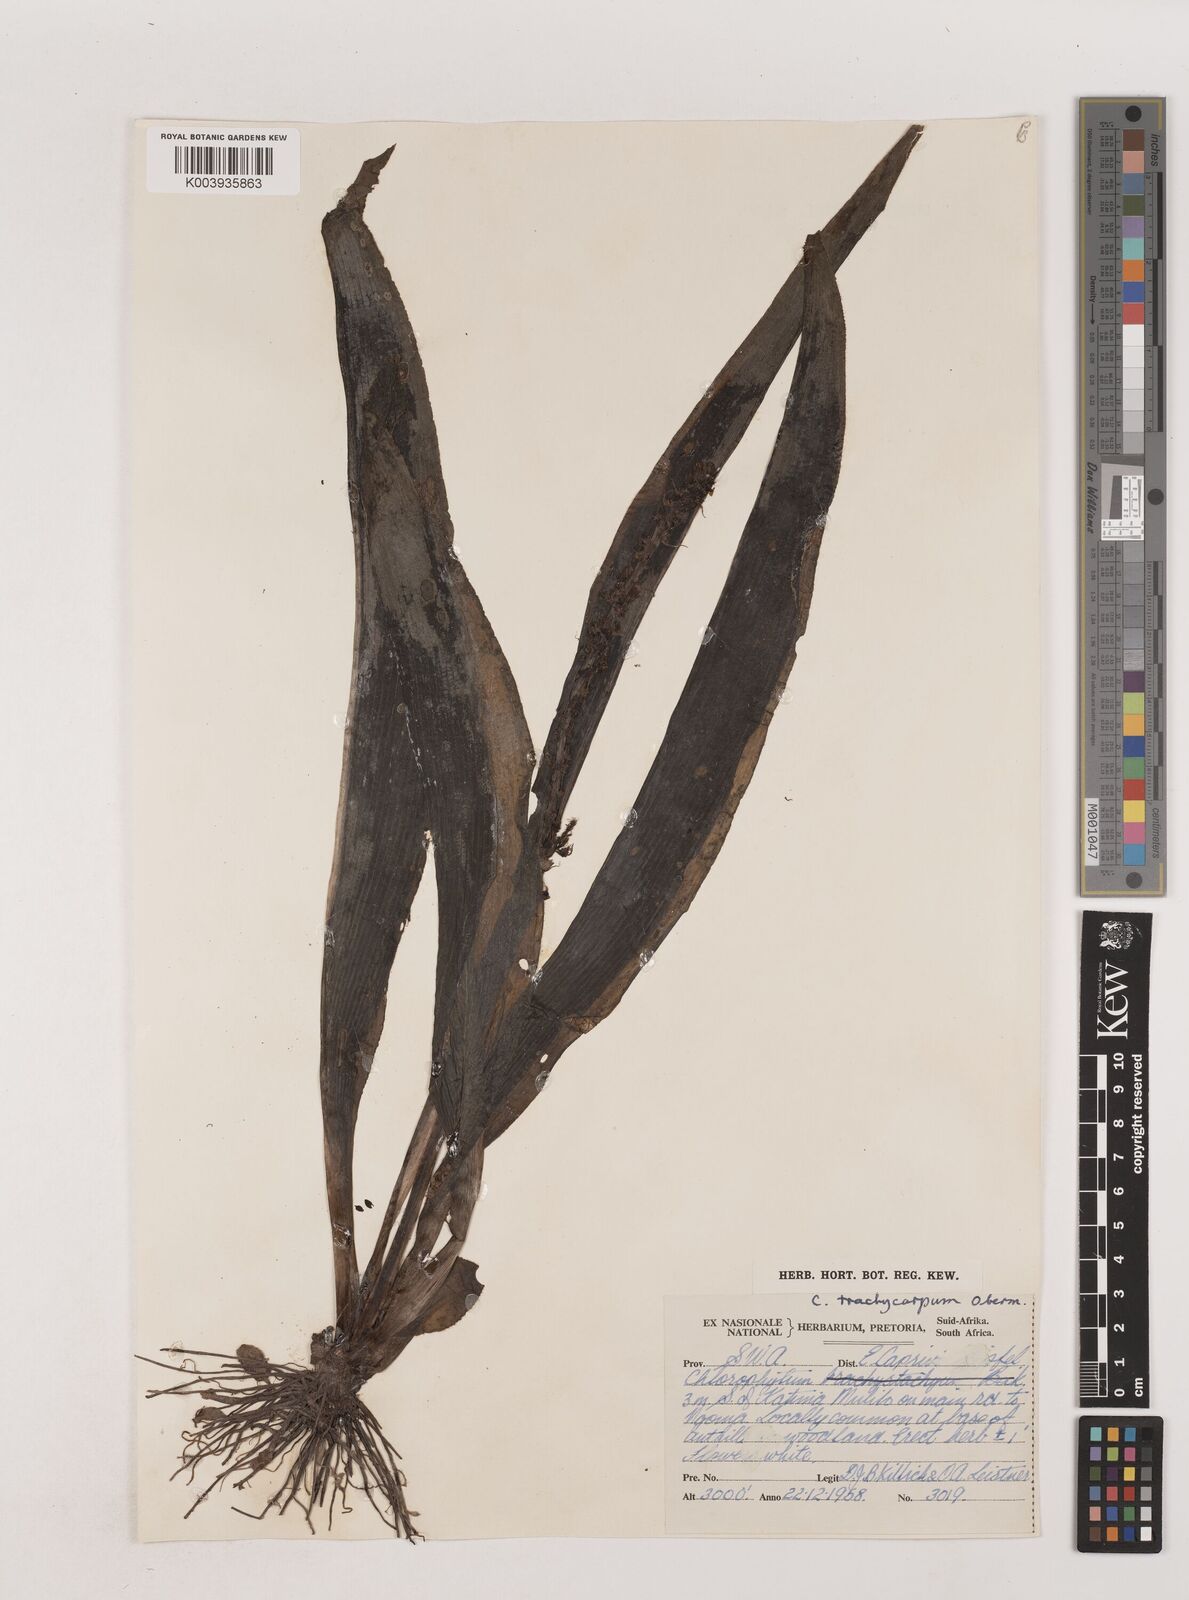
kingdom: Plantae
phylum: Tracheophyta
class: Liliopsida
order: Asparagales
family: Asparagaceae
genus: Chlorophytum
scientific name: Chlorophytum brachystachyum
